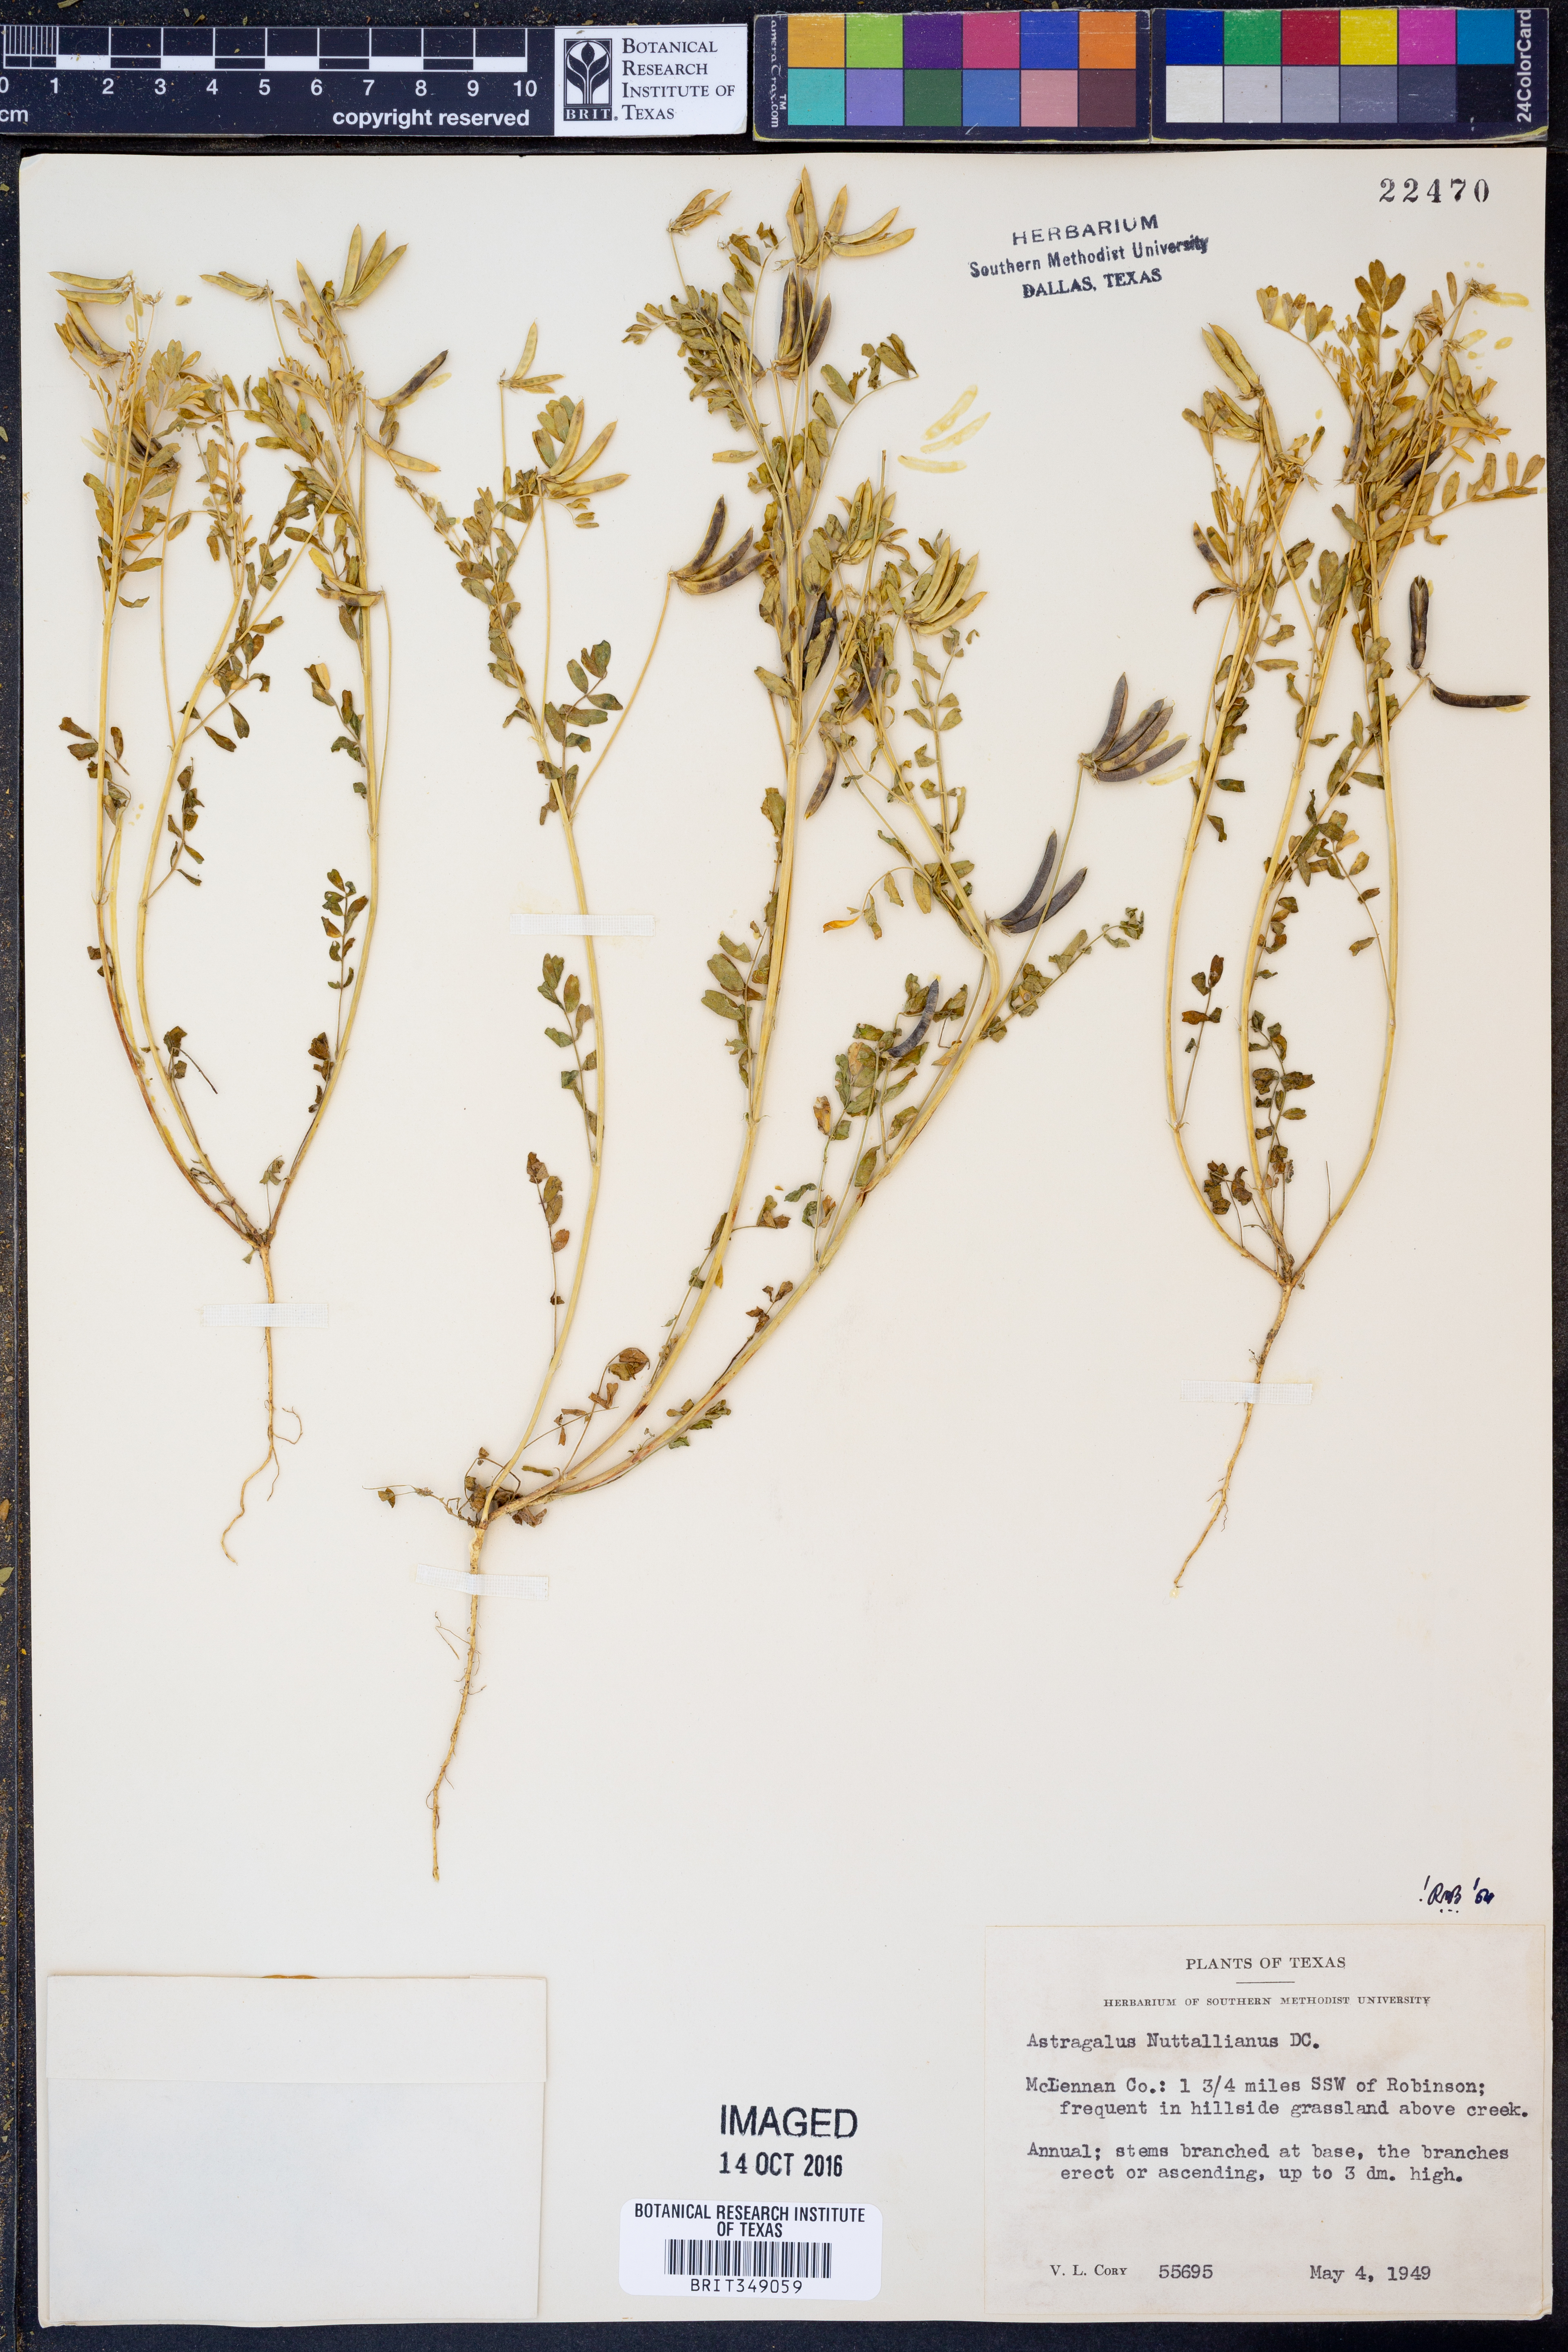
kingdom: Plantae
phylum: Tracheophyta
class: Magnoliopsida
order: Fabales
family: Fabaceae
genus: Astragalus
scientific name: Astragalus nuttallianus
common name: Smallflowered milkvetch
